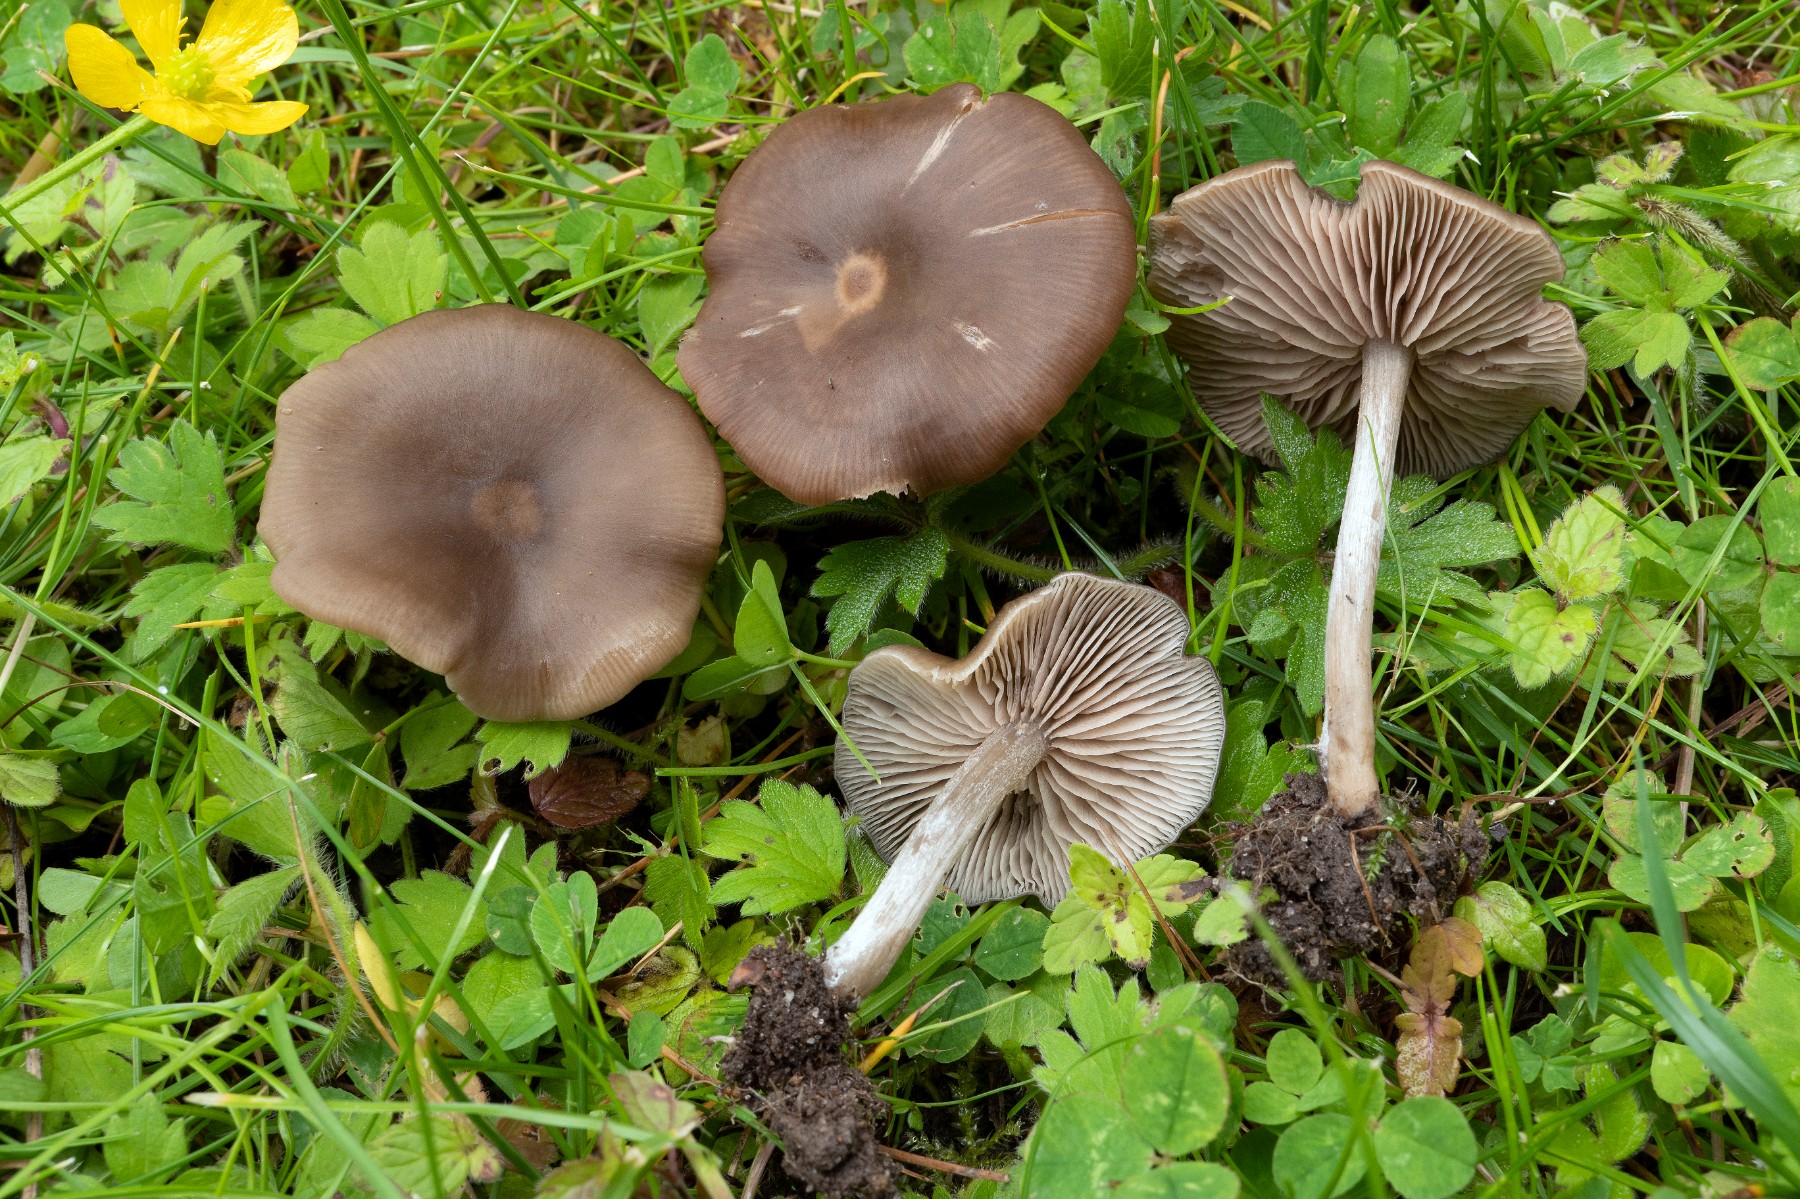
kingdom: Fungi
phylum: Basidiomycota
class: Agaricomycetes
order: Agaricales
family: Entolomataceae
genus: Entoloma
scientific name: Entoloma sericeum
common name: silkeglinsende rødblad
